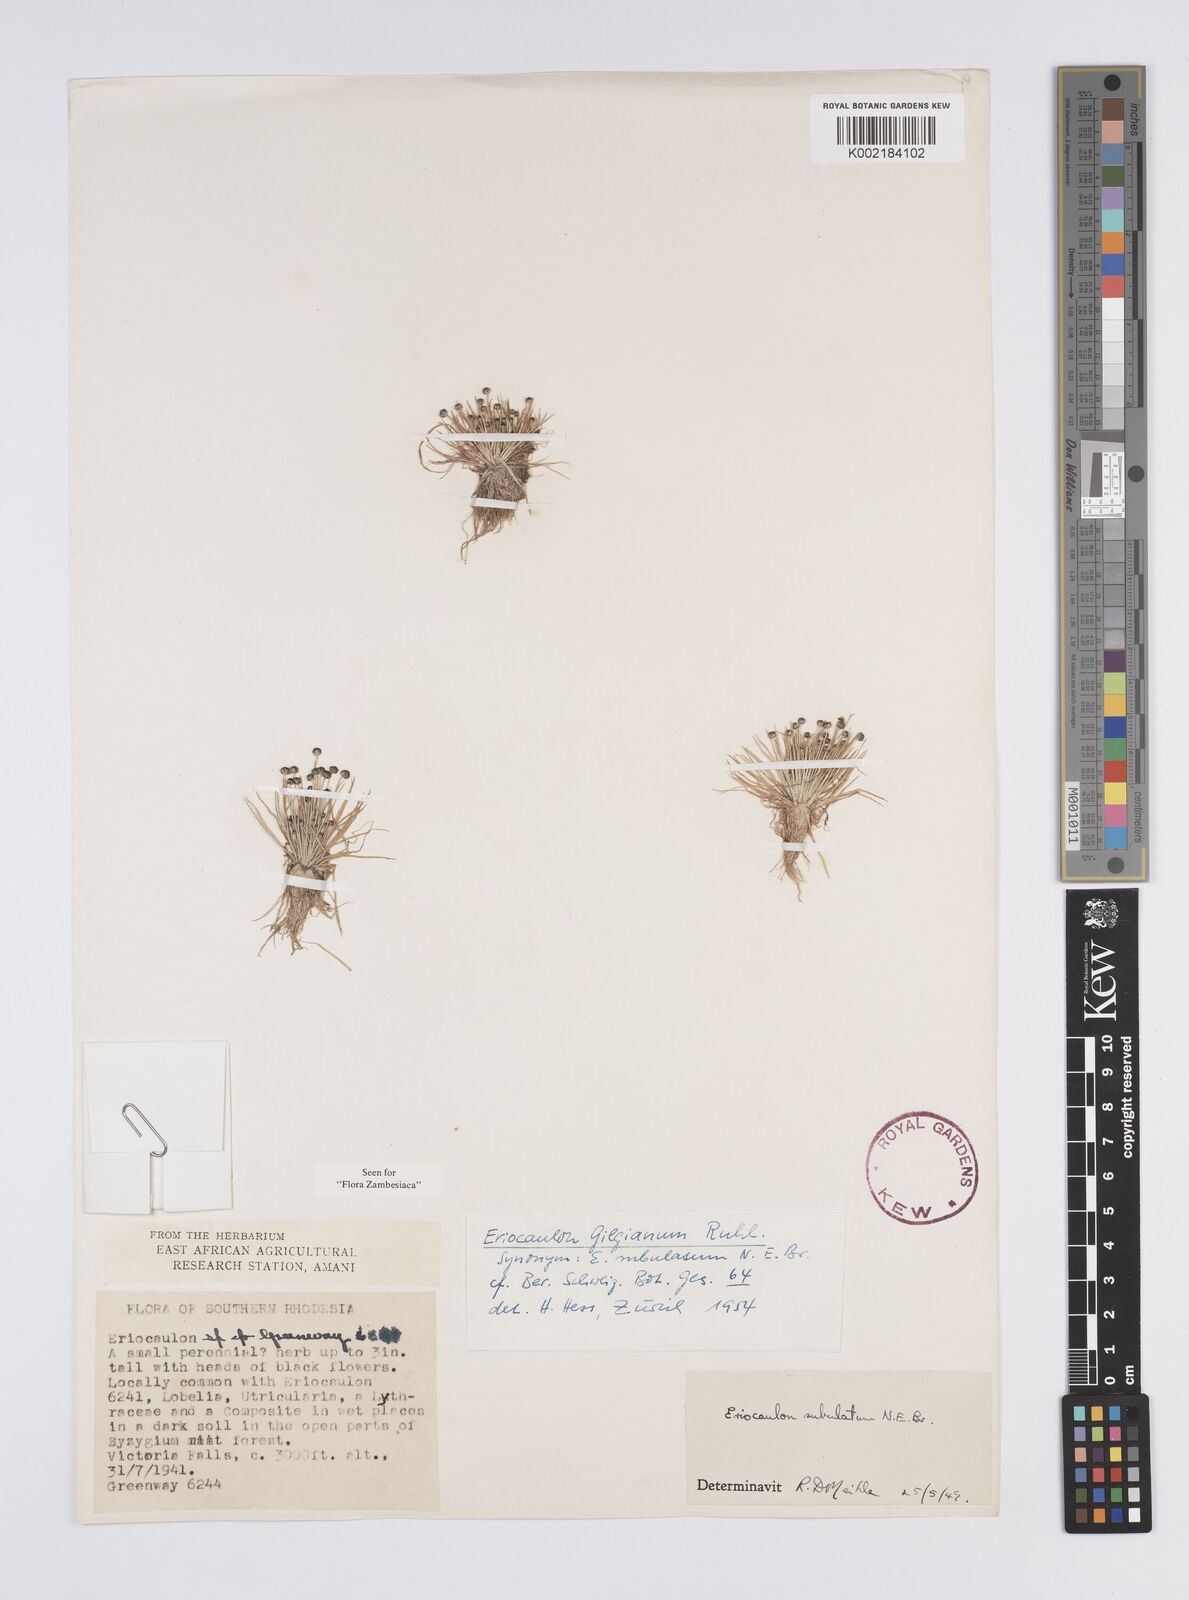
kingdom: Plantae
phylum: Tracheophyta
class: Liliopsida
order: Poales
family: Eriocaulaceae
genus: Eriocaulon
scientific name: Eriocaulon abyssinicum
